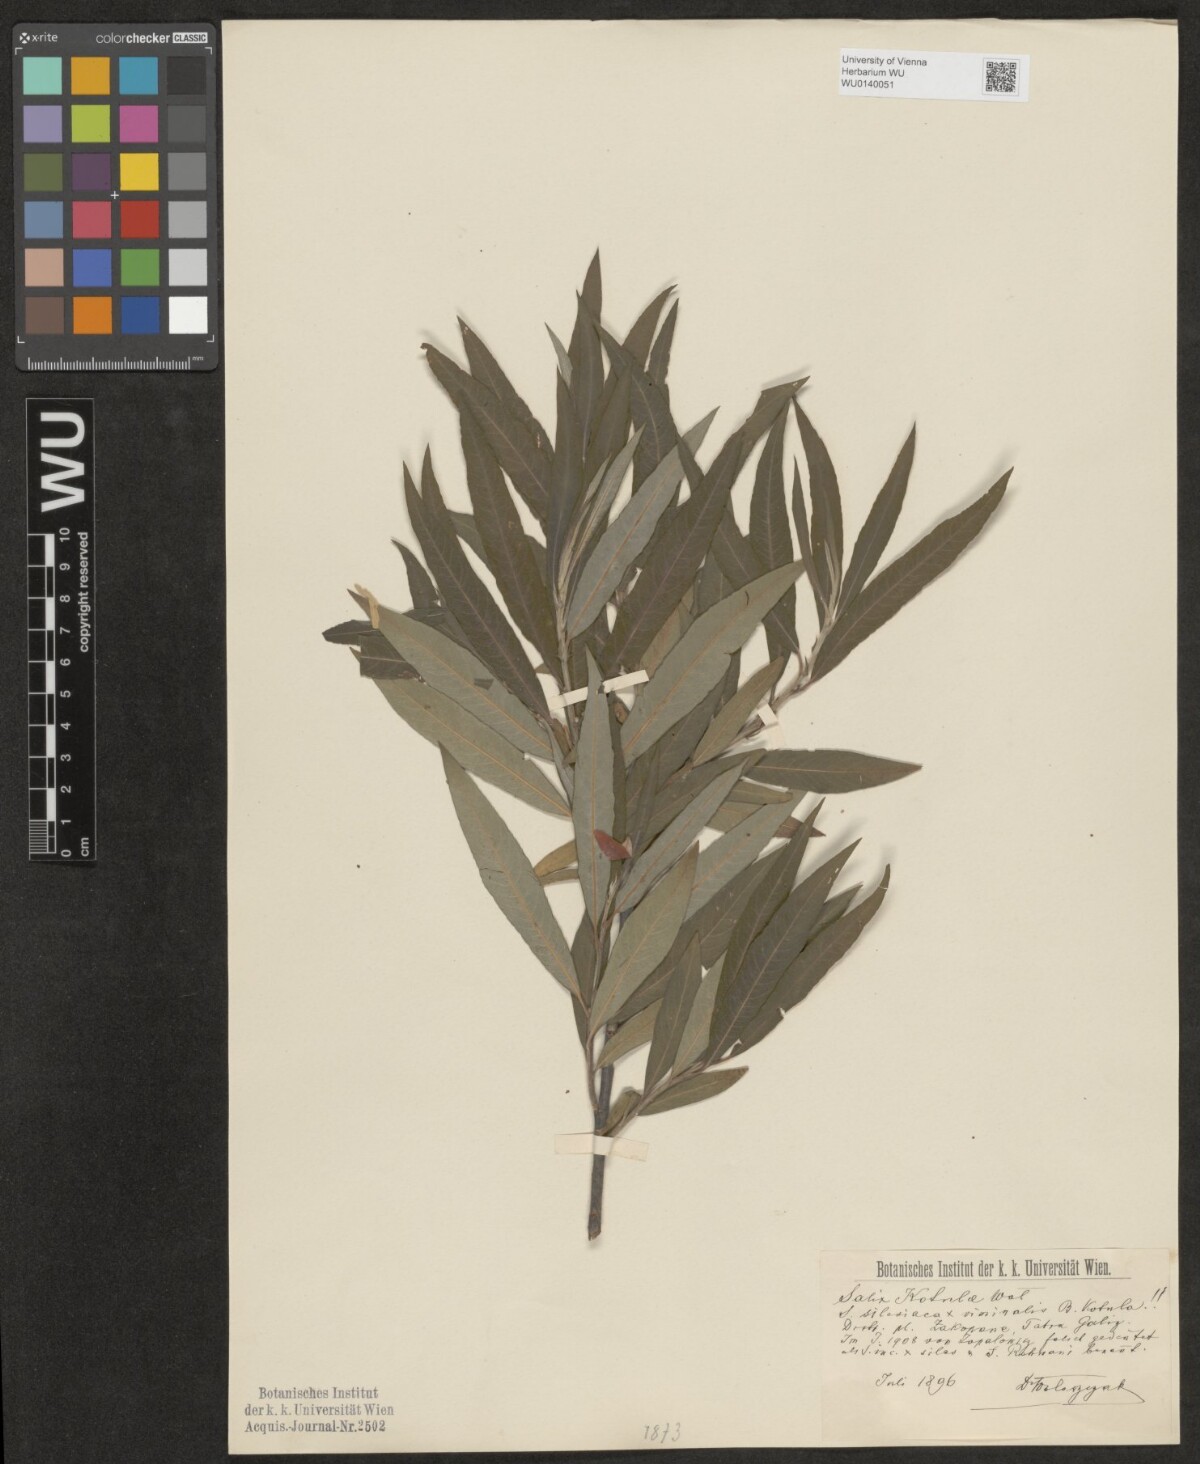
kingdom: Plantae
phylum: Tracheophyta
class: Magnoliopsida
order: Malpighiales
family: Salicaceae
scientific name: Salicaceae
